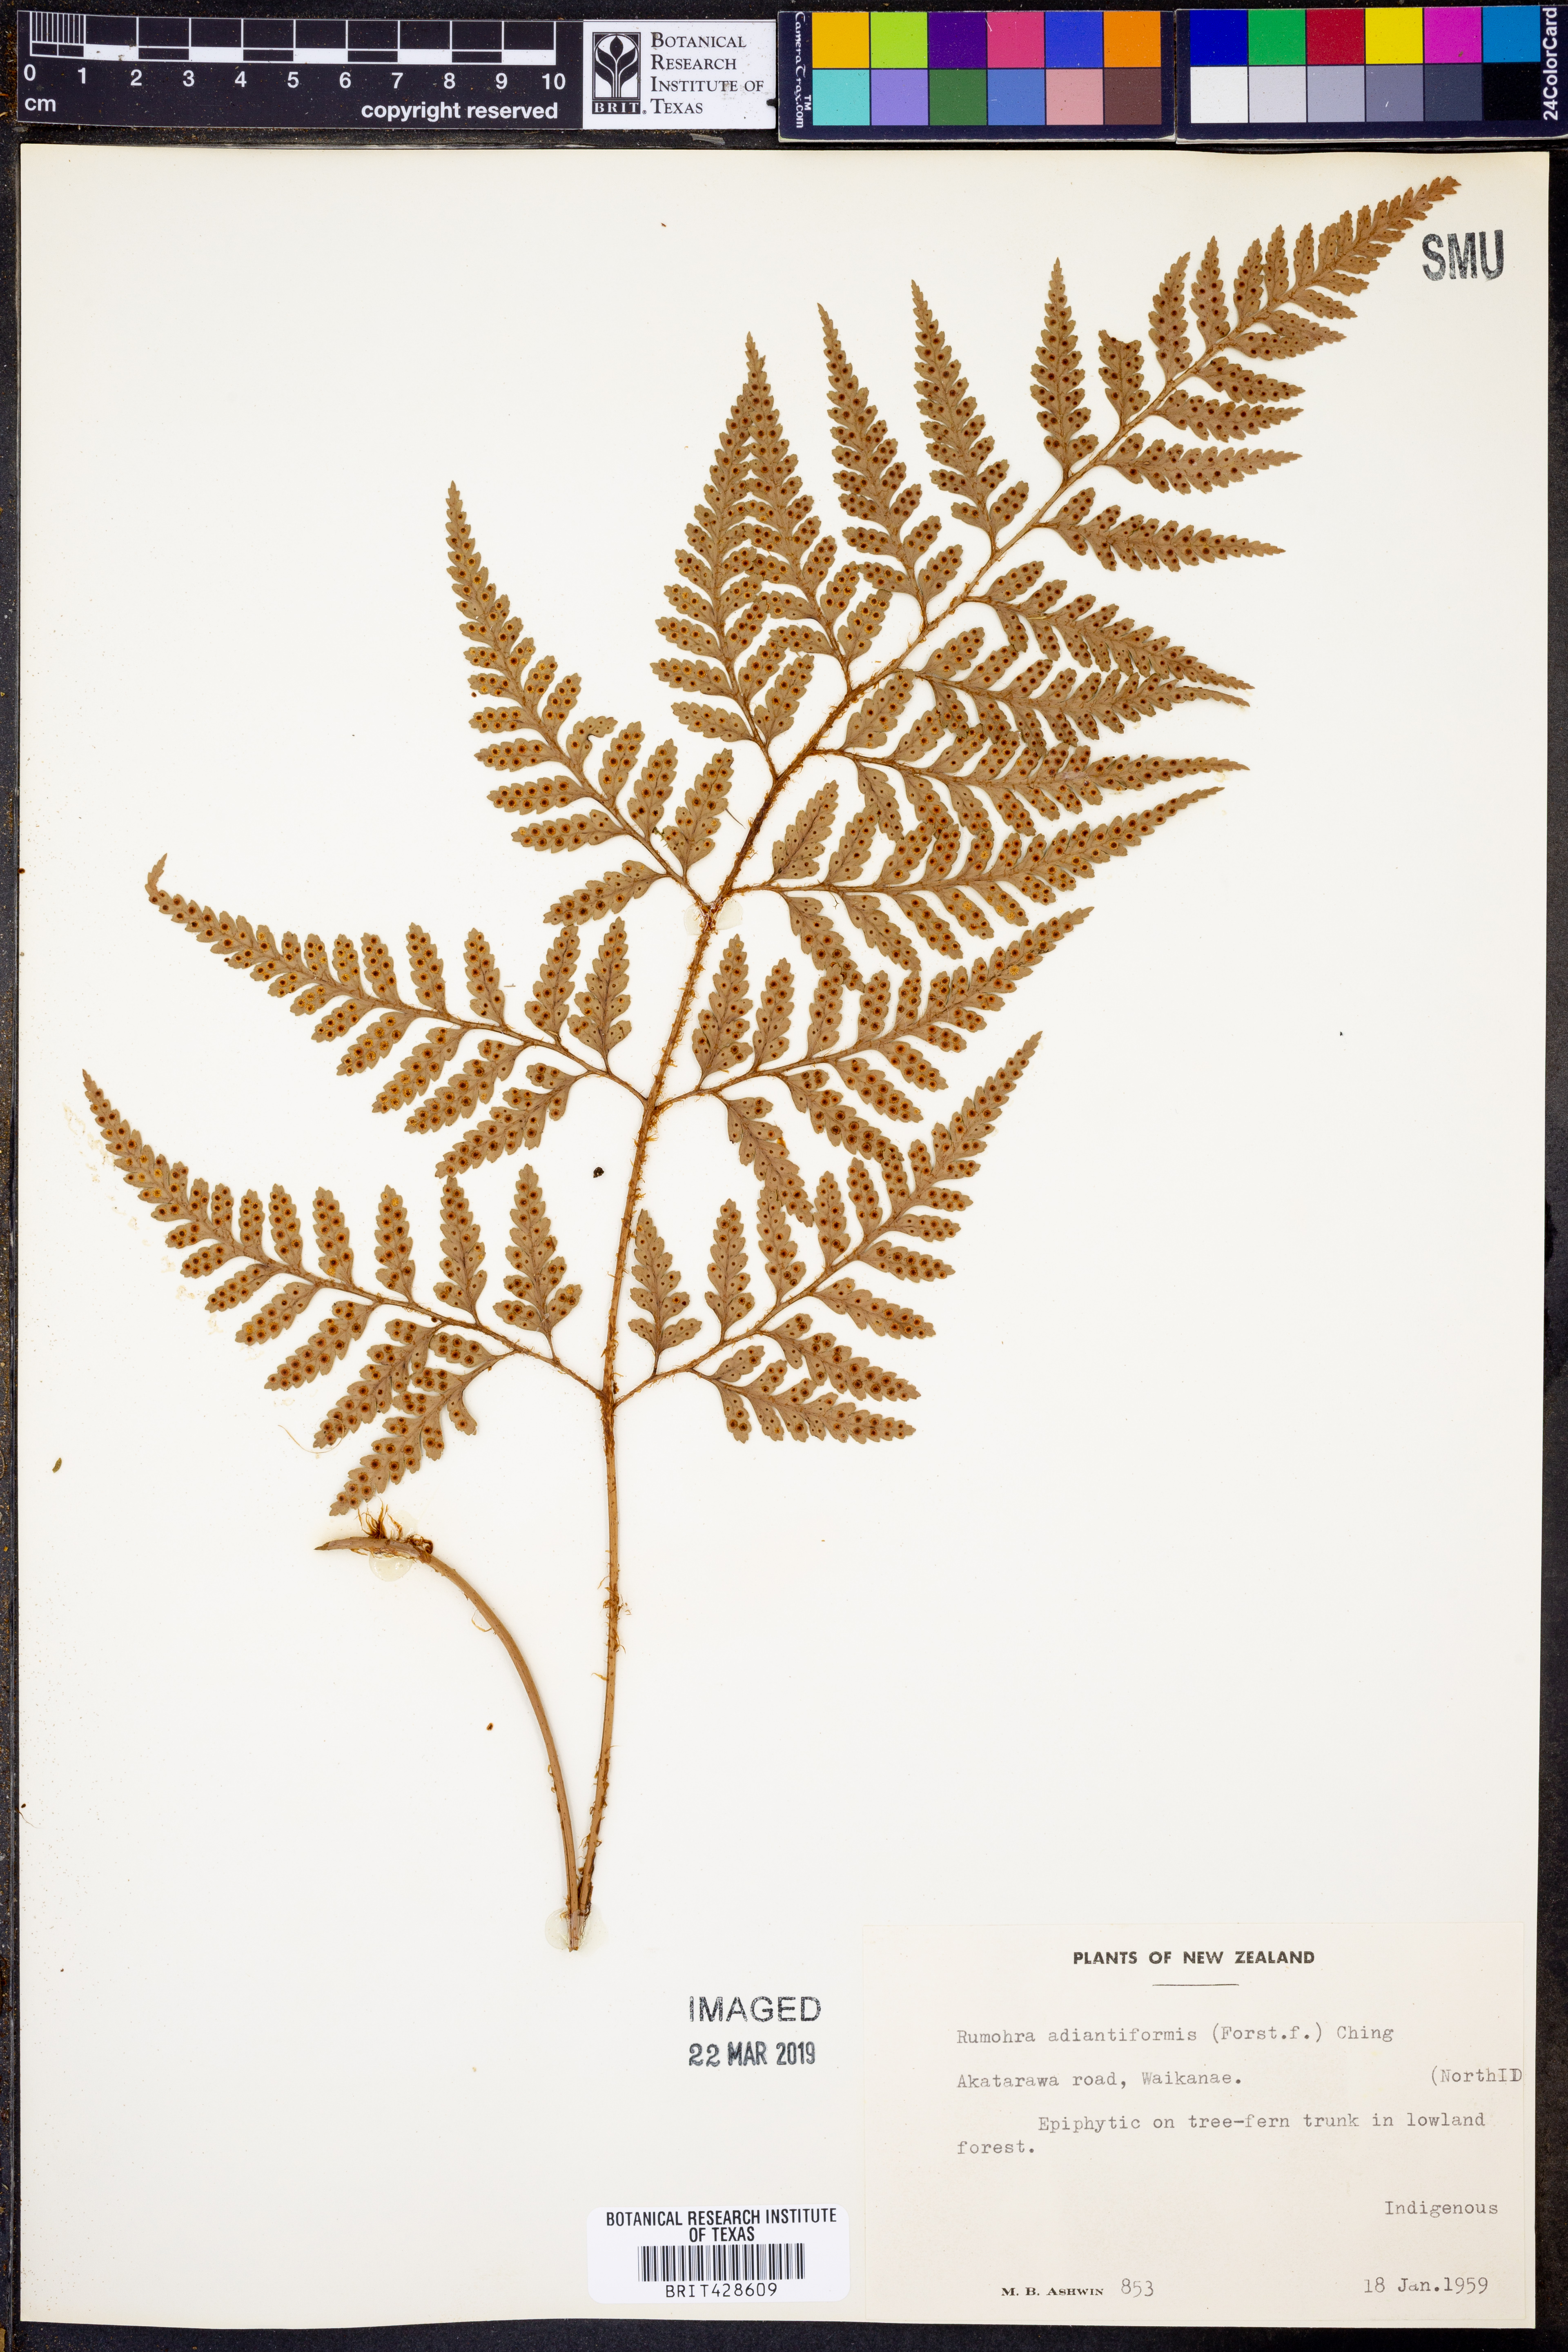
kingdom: Plantae
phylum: Tracheophyta
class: Polypodiopsida
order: Polypodiales
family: Dryopteridaceae
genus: Rumohra
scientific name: Rumohra adiantiformis
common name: Leather fern
